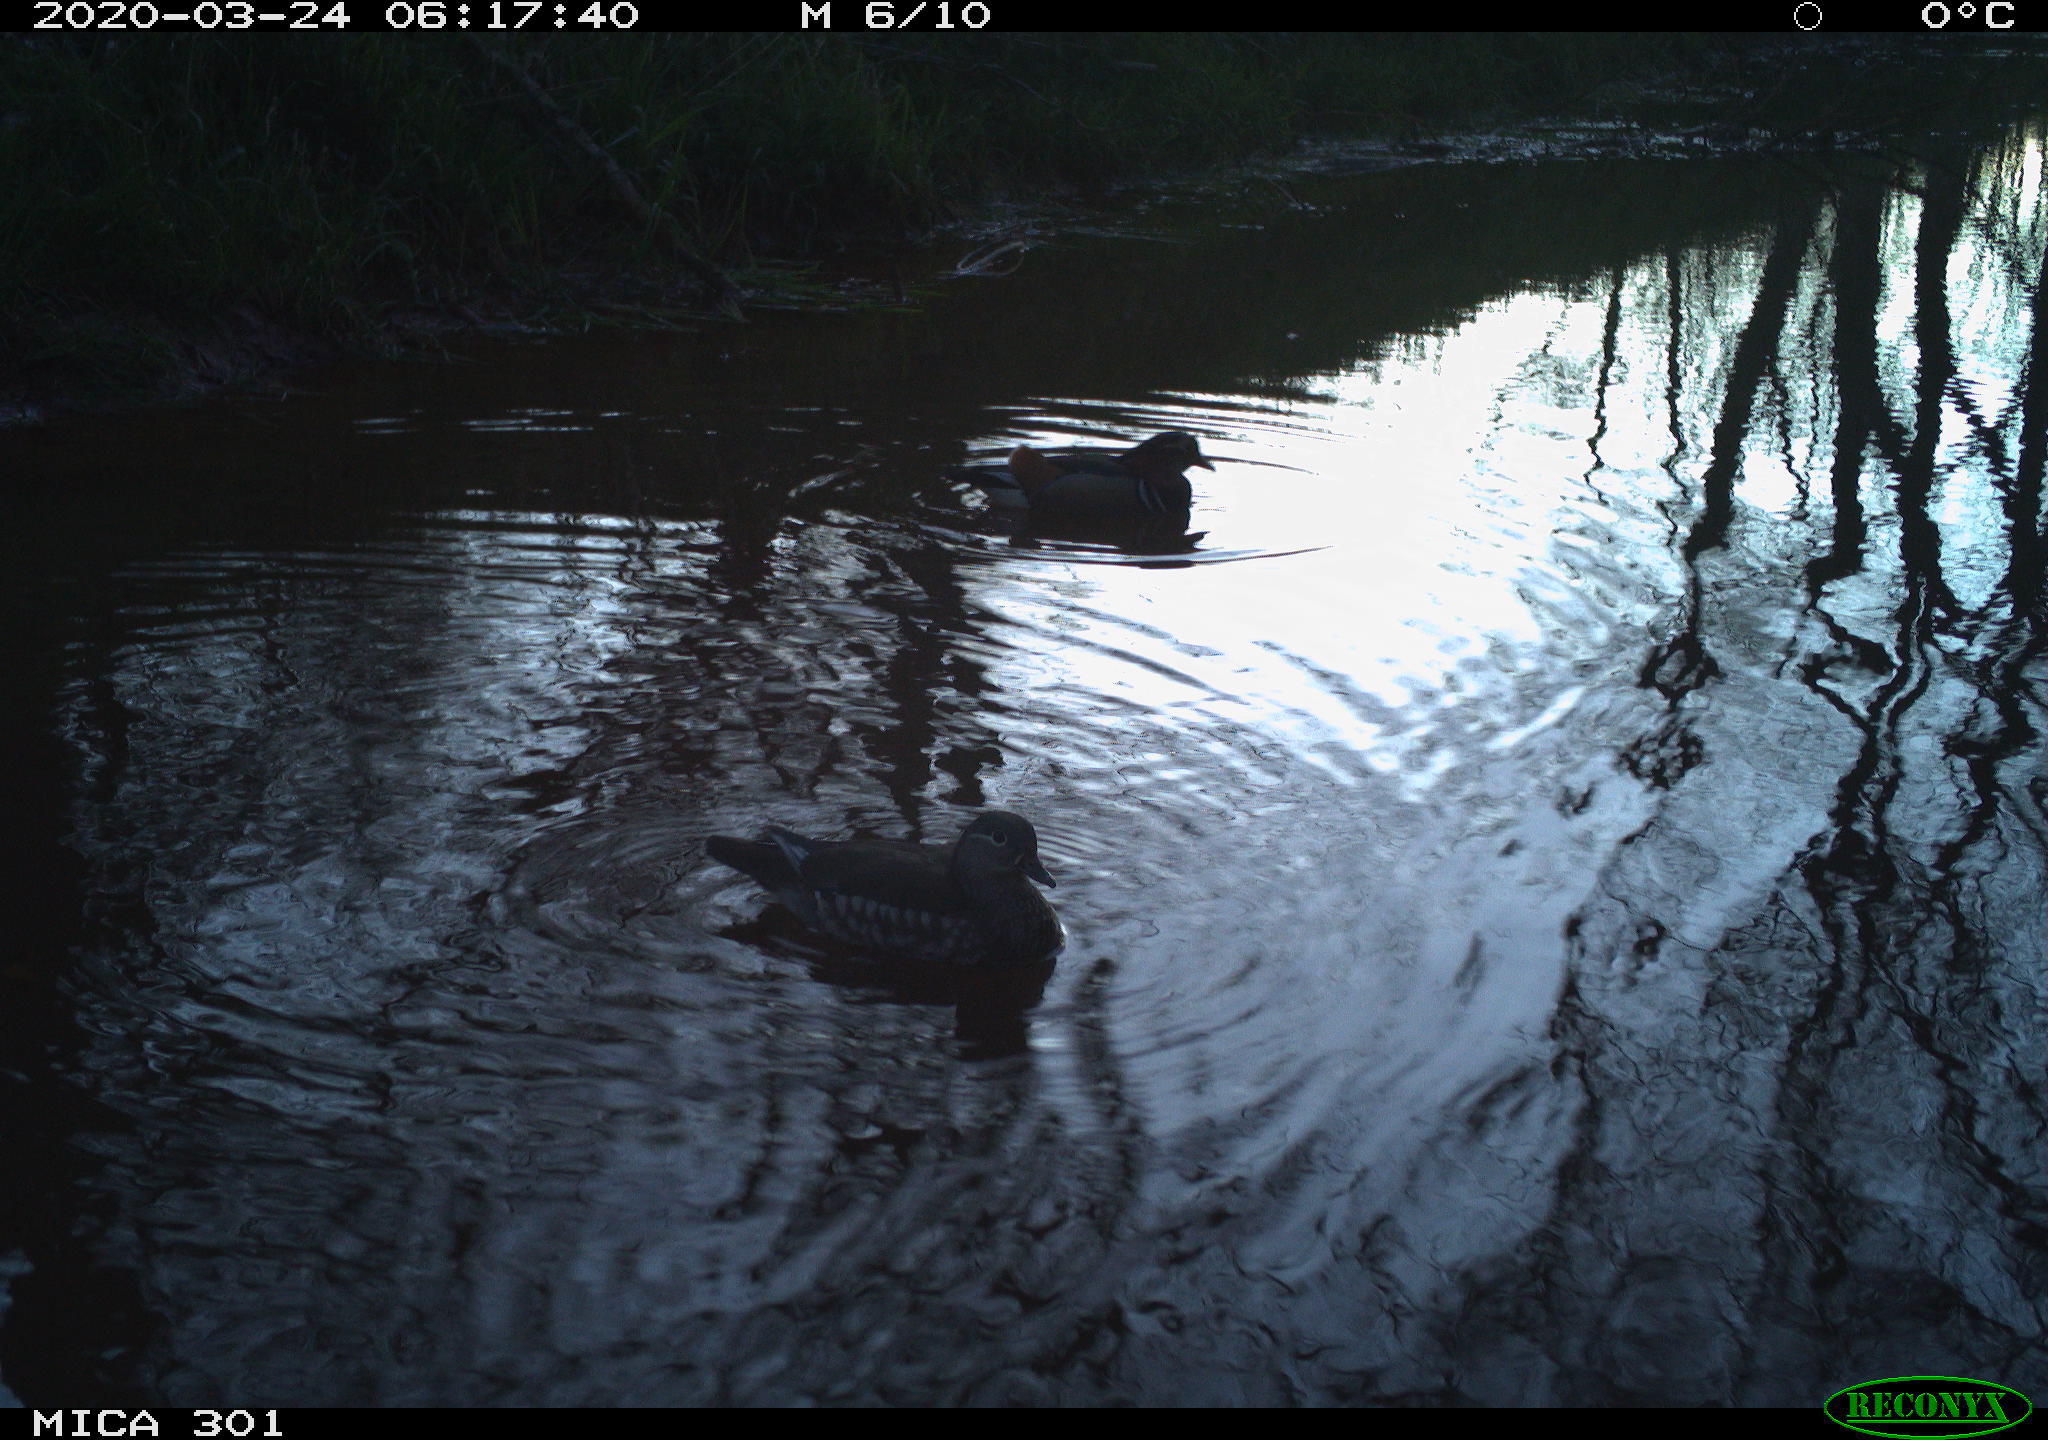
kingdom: Animalia
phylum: Chordata
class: Aves
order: Anseriformes
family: Anatidae
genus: Aix
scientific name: Aix galericulata
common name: Mandarin duck
